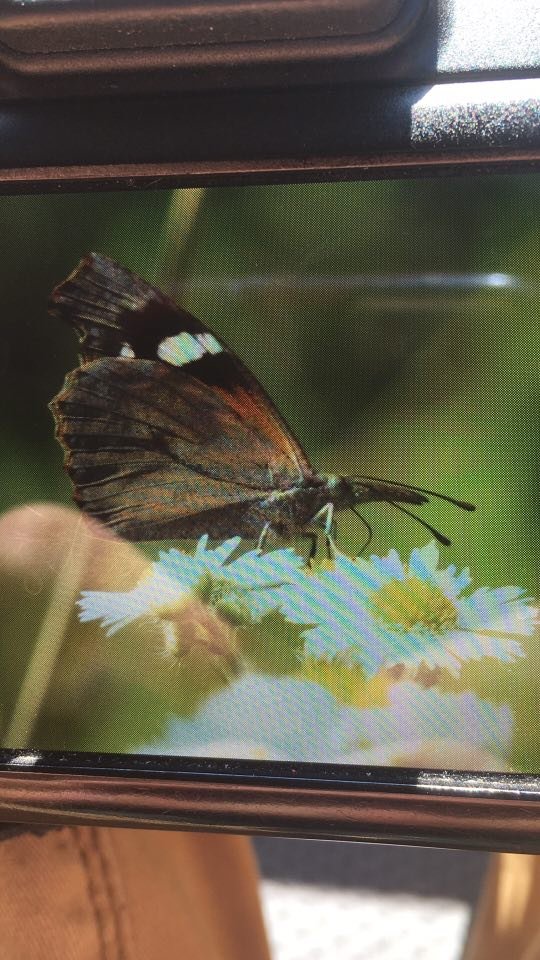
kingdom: Animalia
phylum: Arthropoda
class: Insecta
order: Lepidoptera
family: Nymphalidae
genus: Libytheana
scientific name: Libytheana carinenta
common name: American Snout
